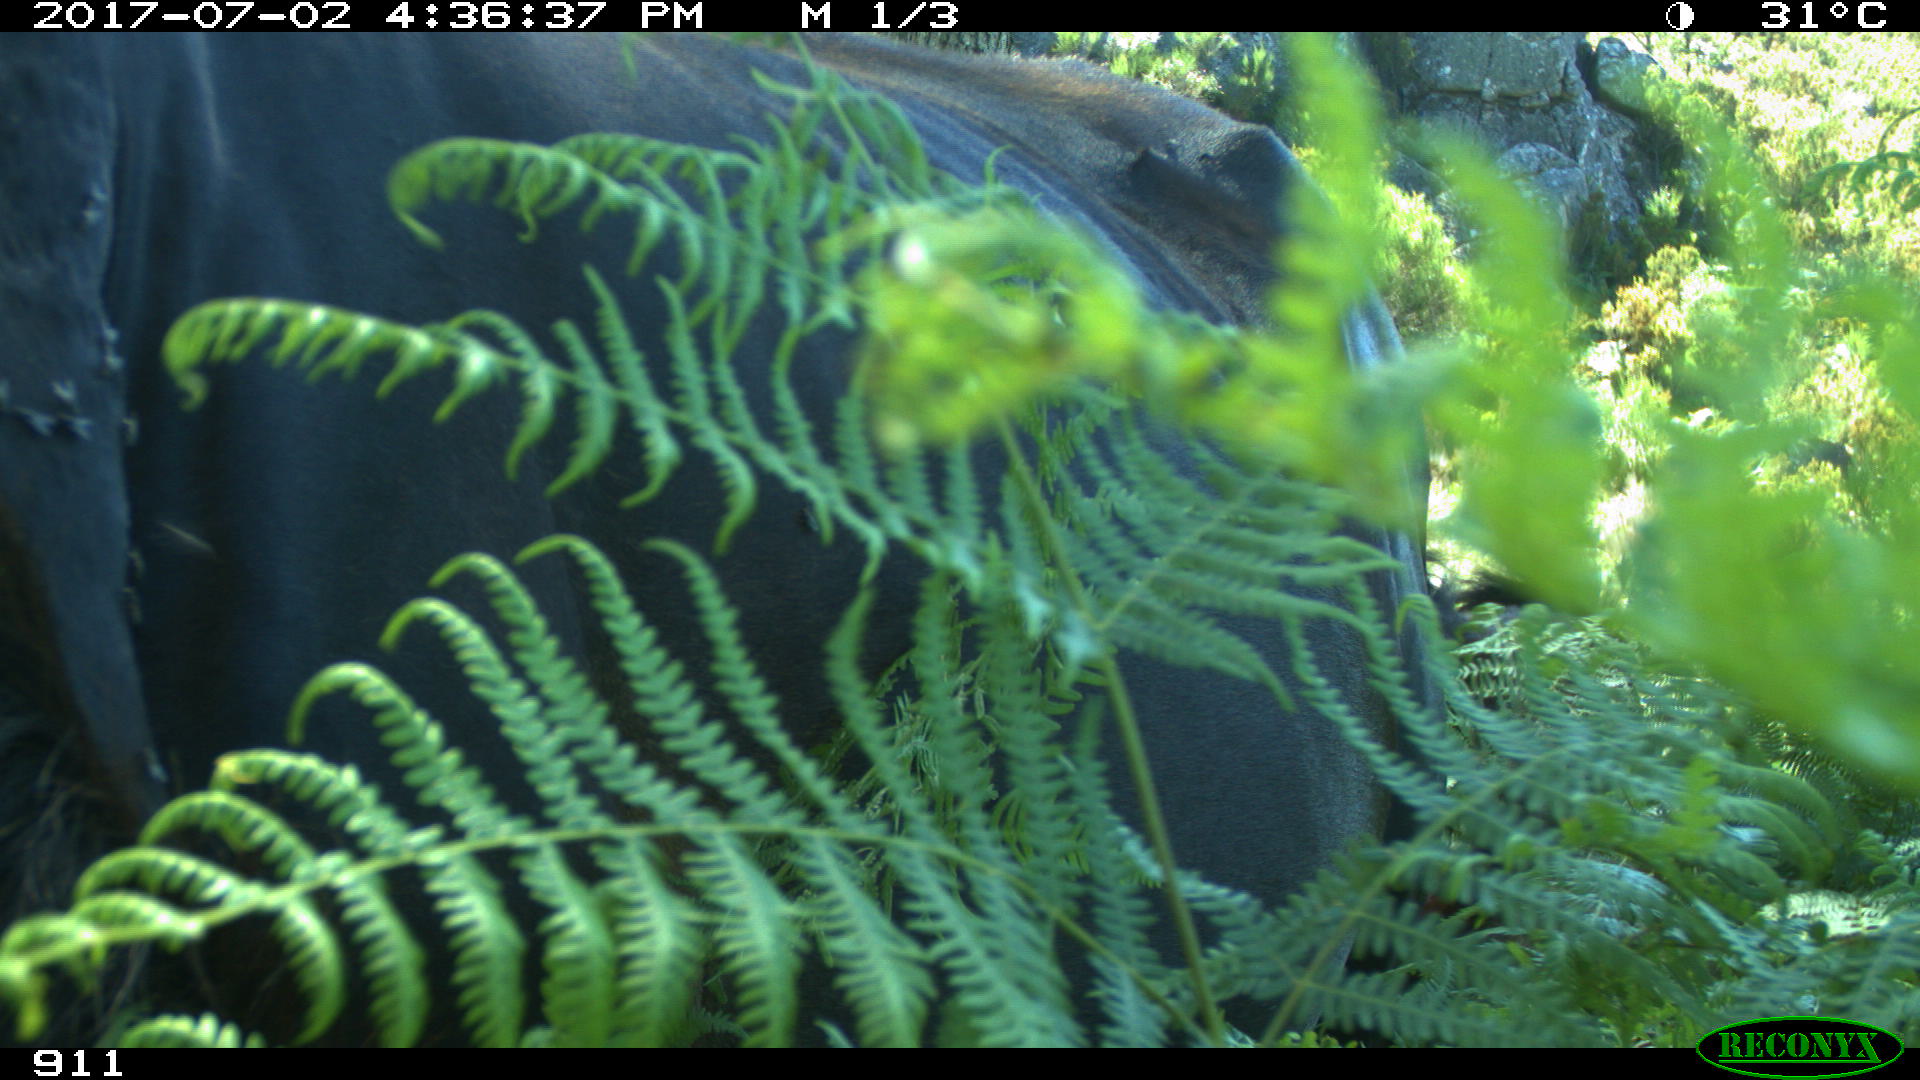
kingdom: Animalia
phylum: Chordata
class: Mammalia
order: Perissodactyla
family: Equidae
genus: Equus
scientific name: Equus caballus
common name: Horse
